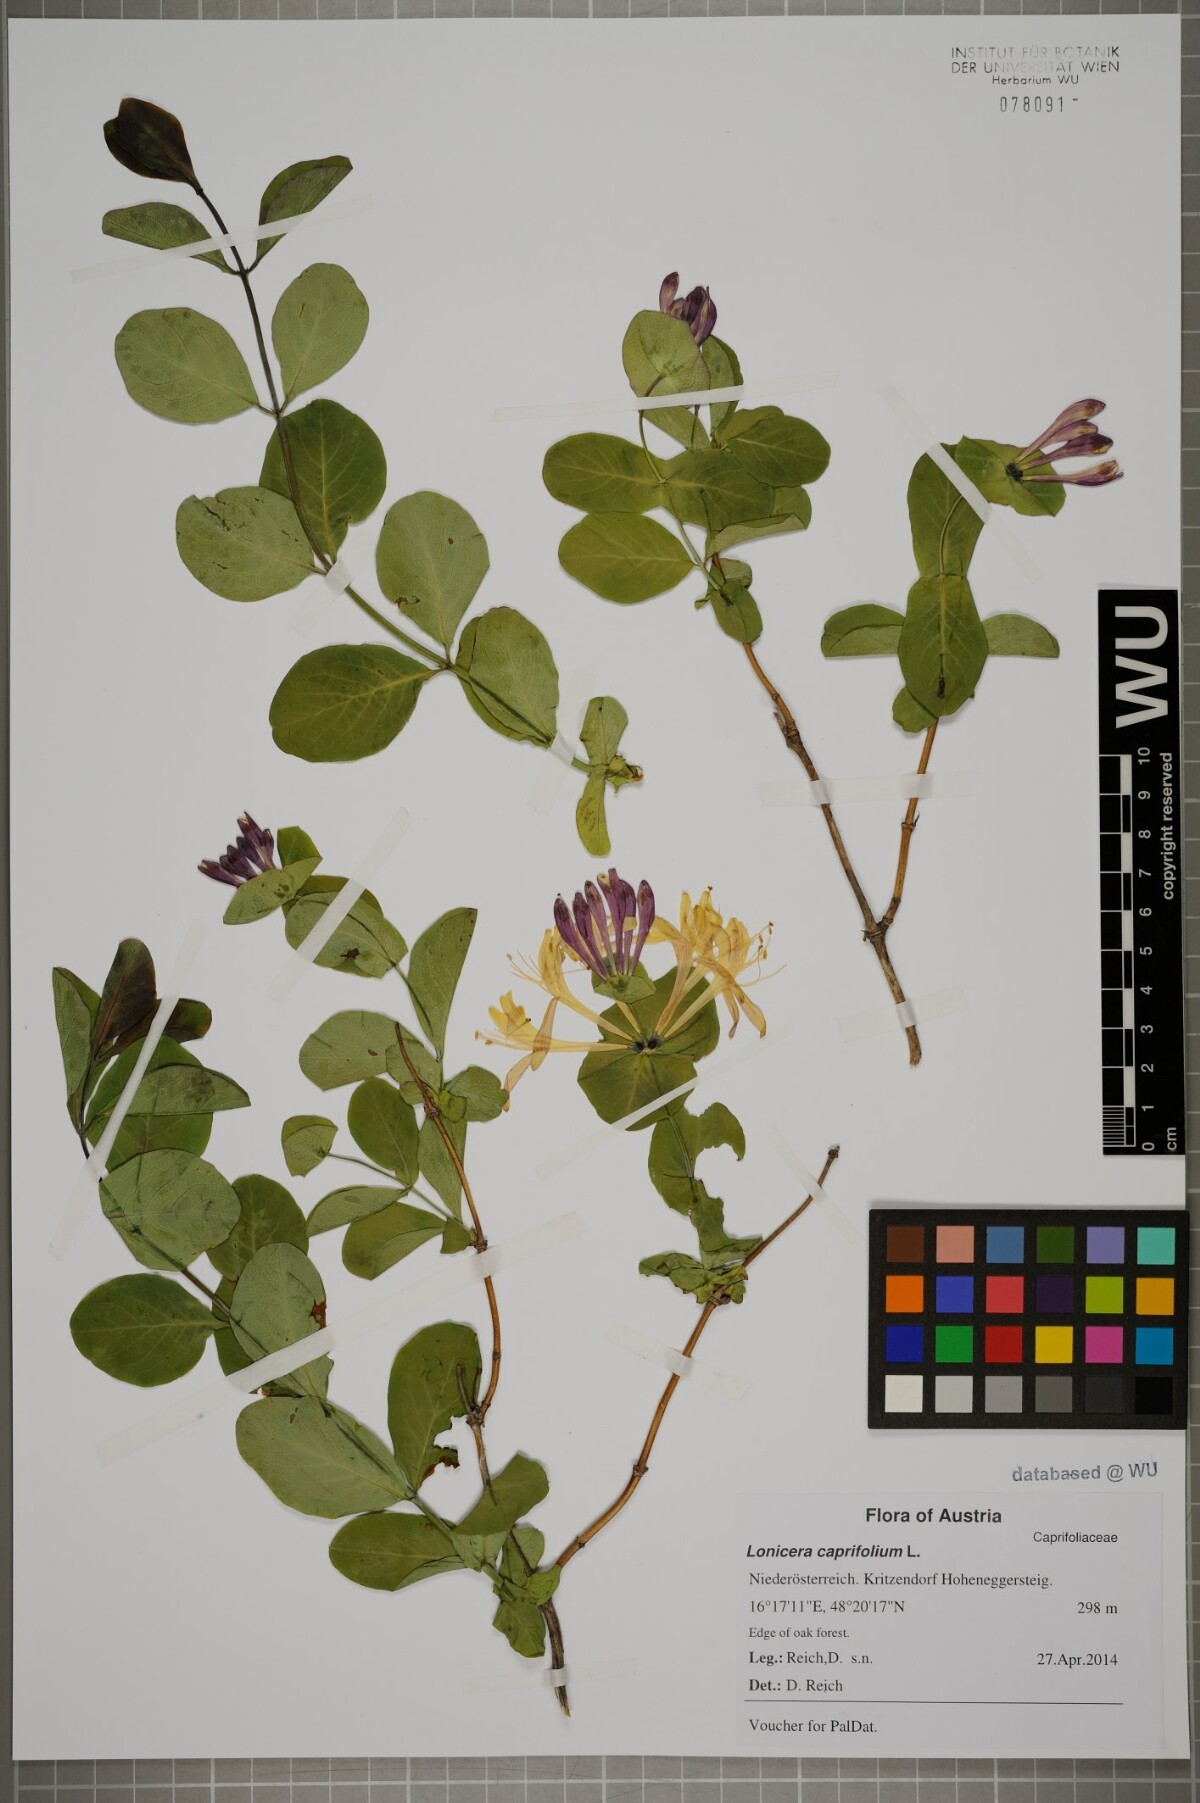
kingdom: Plantae
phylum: Tracheophyta
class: Magnoliopsida
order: Dipsacales
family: Caprifoliaceae
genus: Lonicera
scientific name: Lonicera caprifolium
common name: Perfoliate honeysuckle
